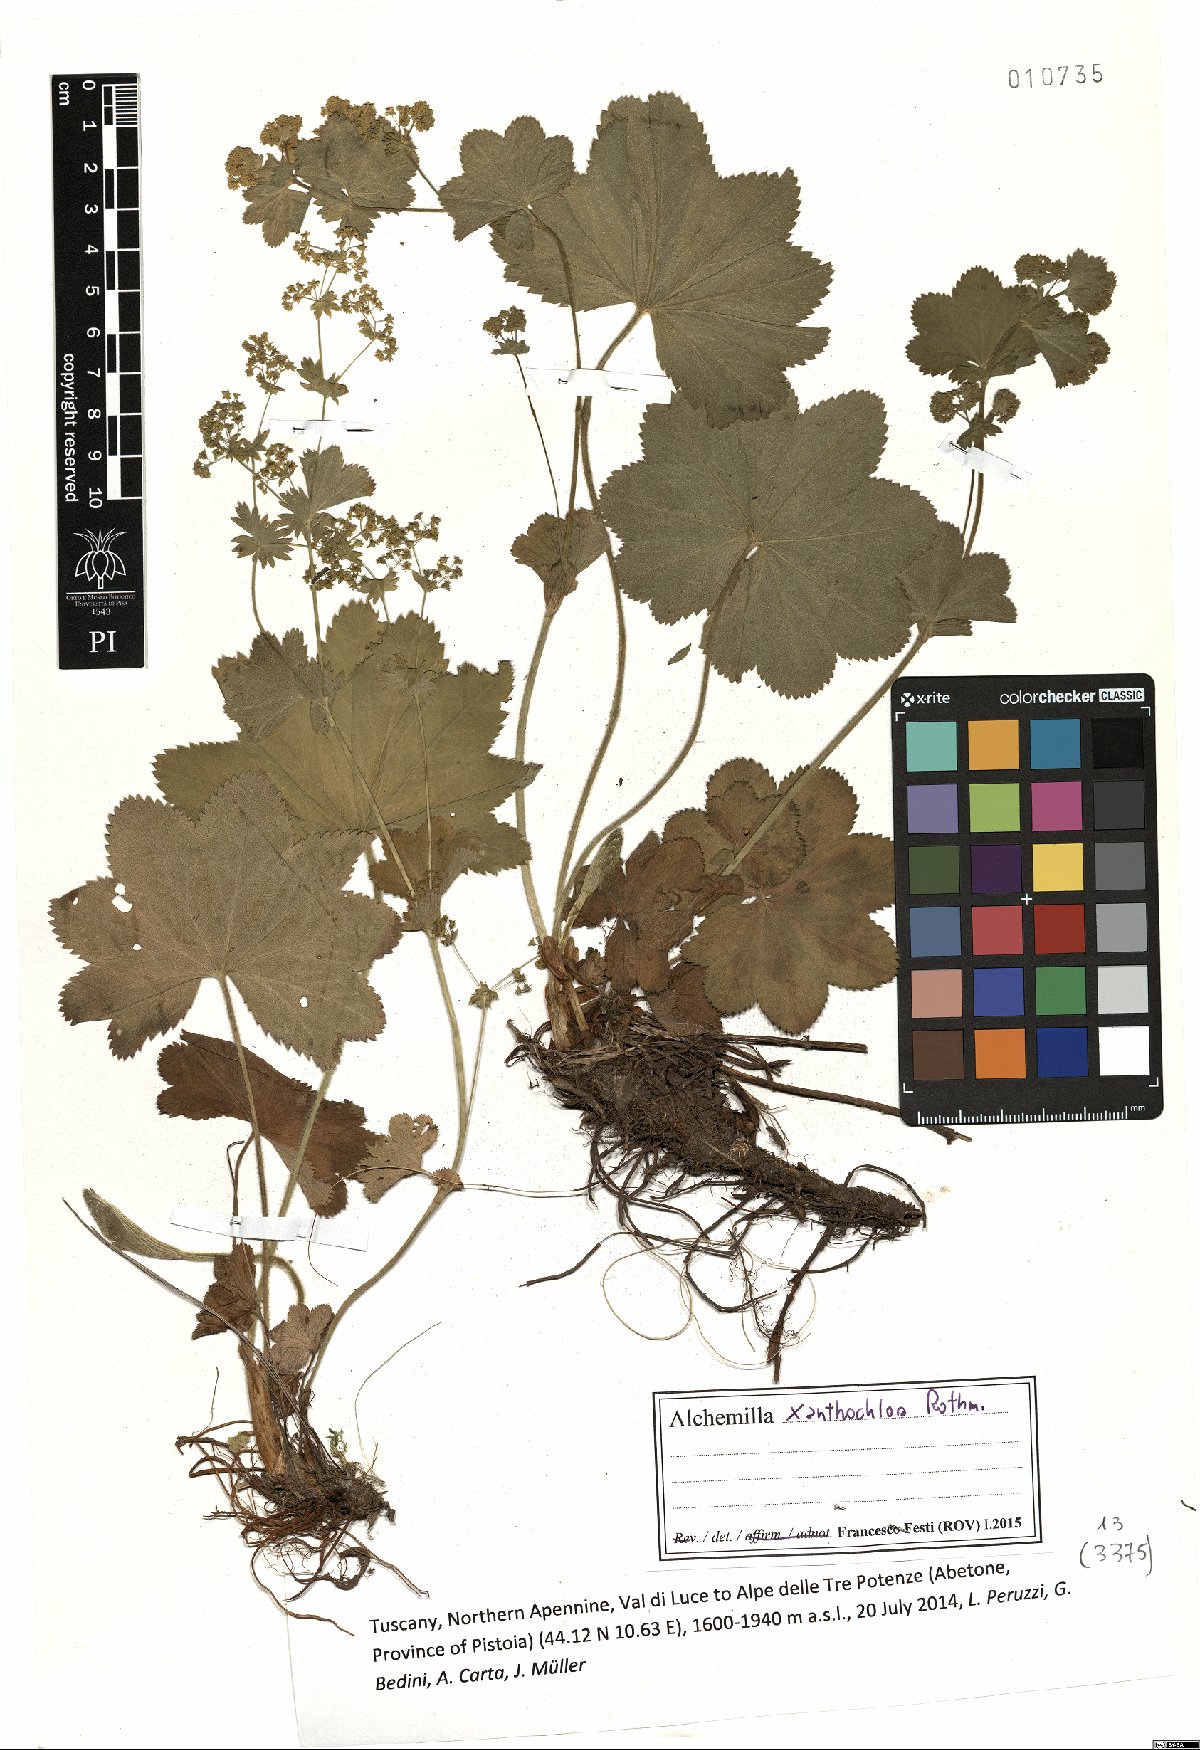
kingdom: Plantae
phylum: Tracheophyta
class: Magnoliopsida
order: Rosales
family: Rosaceae
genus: Alchemilla
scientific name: Alchemilla xanthochlora
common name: Intermediate lady's-mantle
